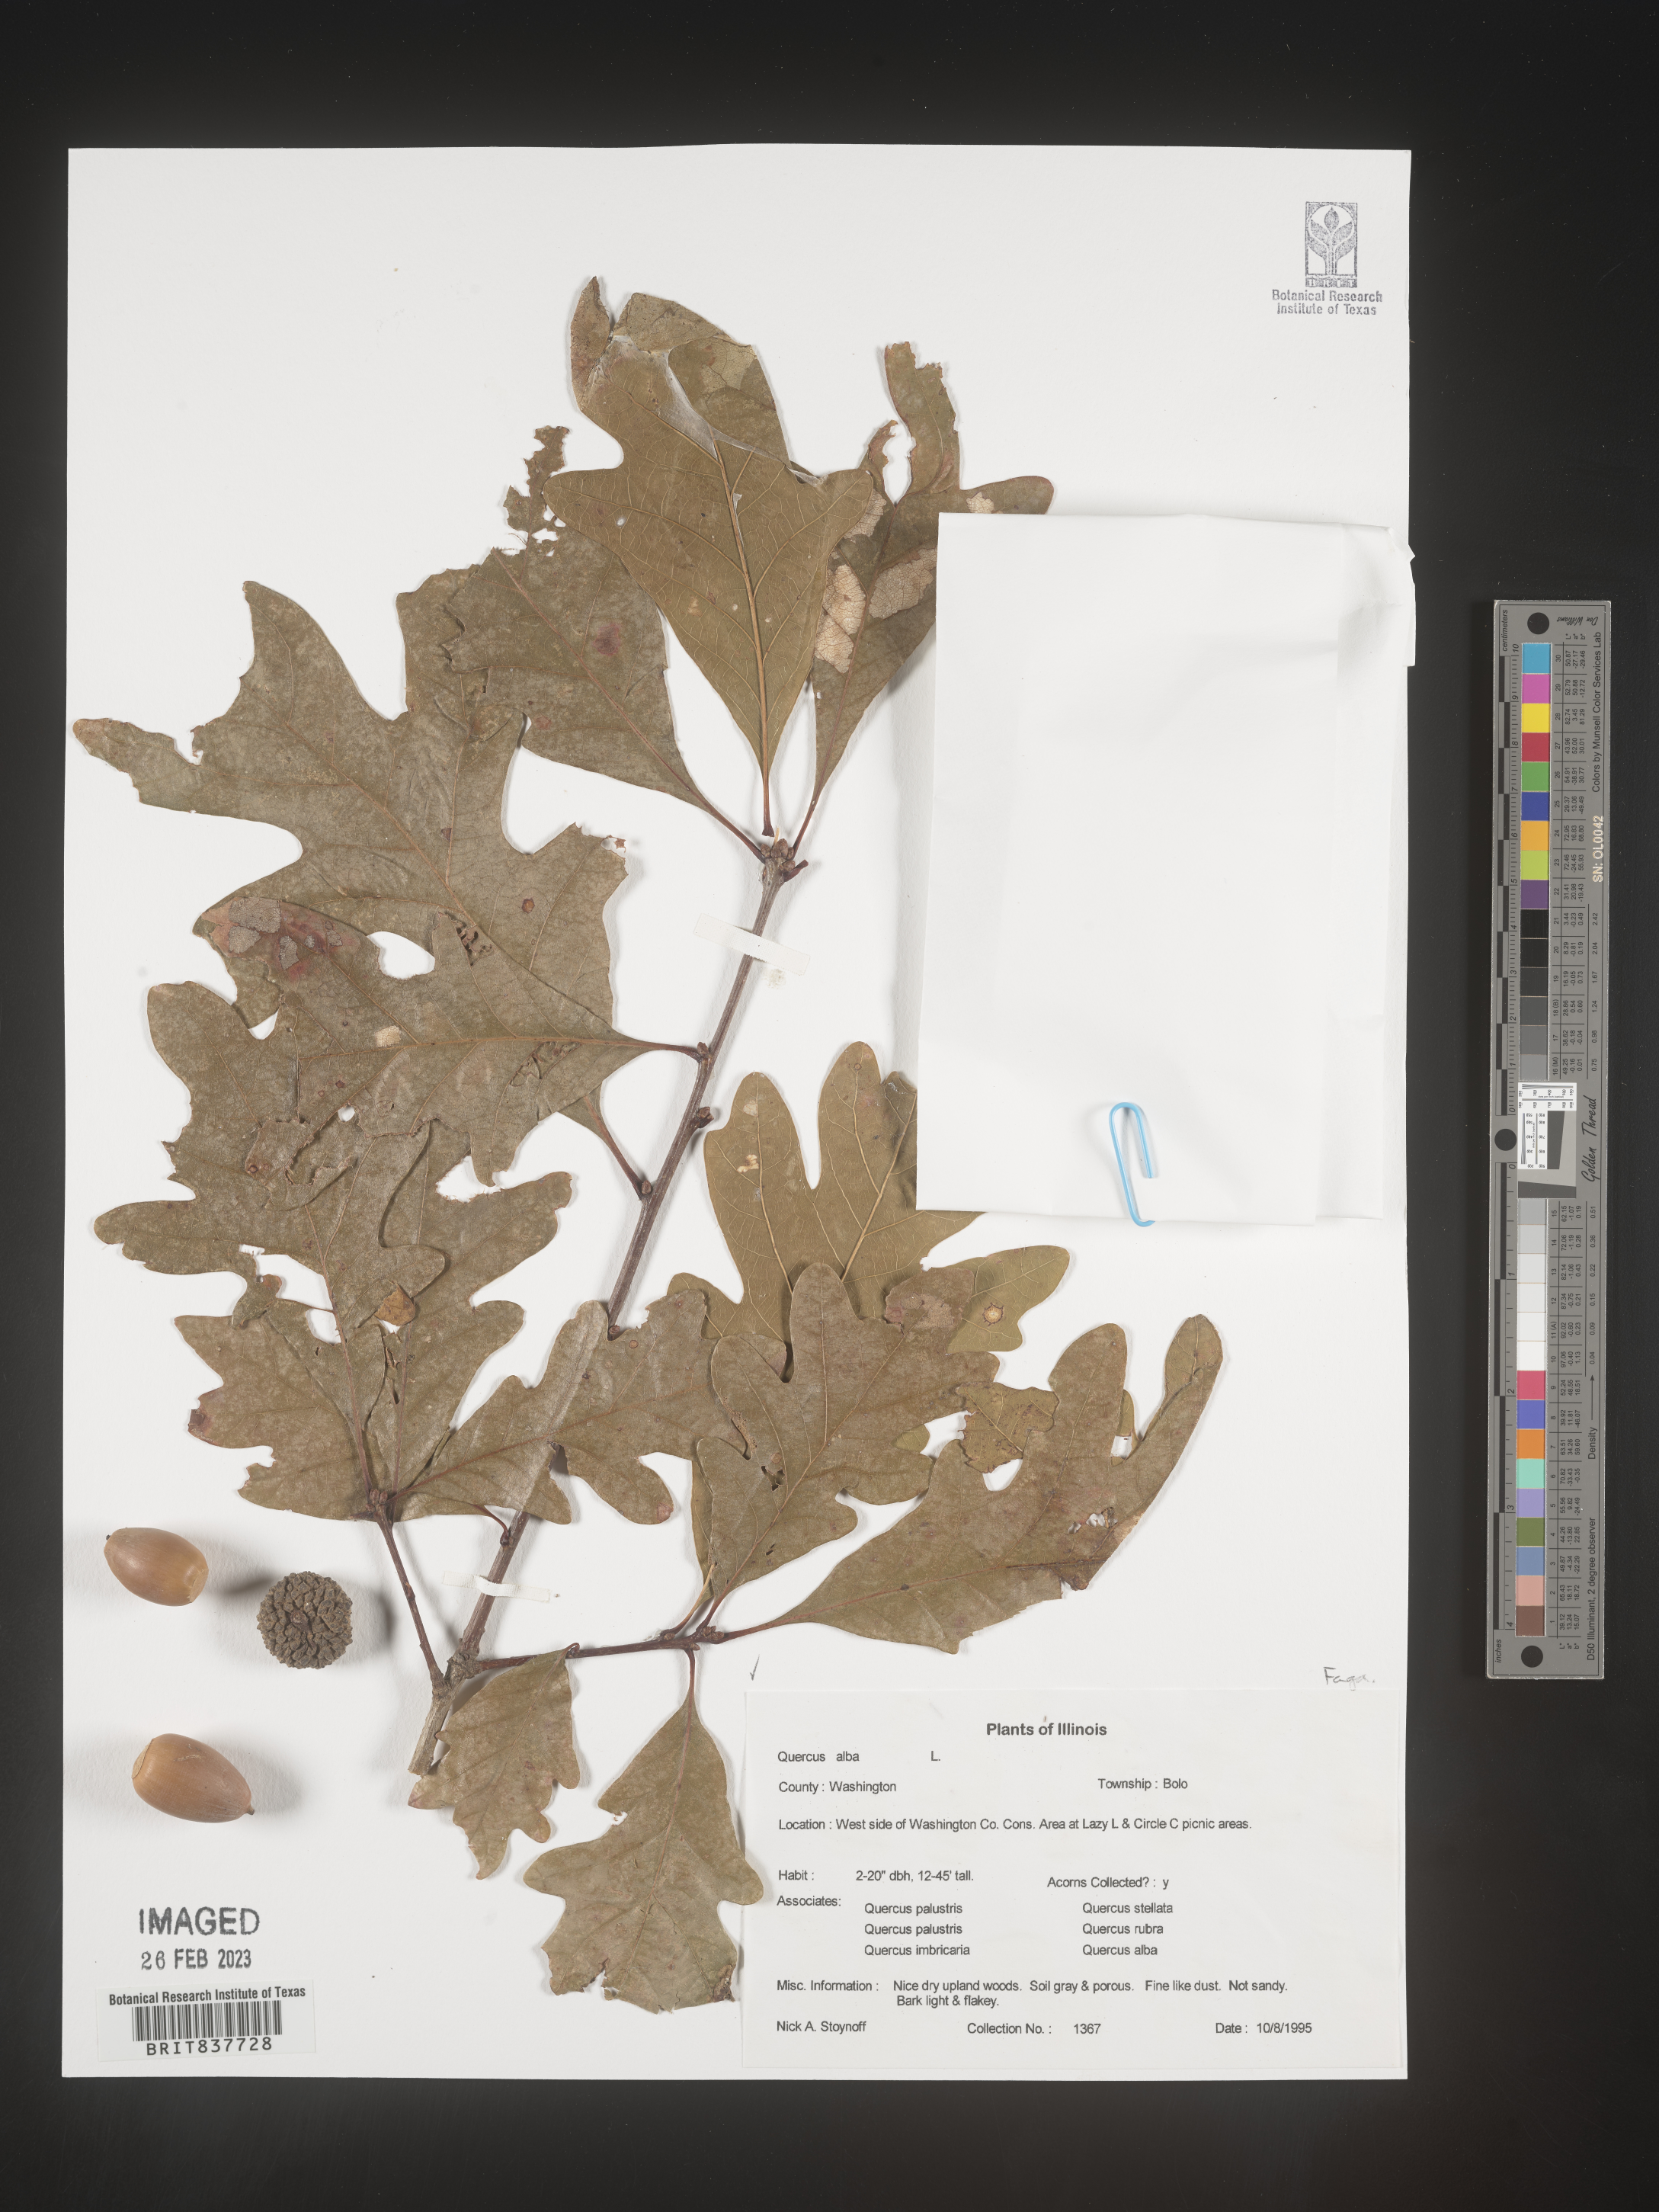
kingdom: Plantae
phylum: Tracheophyta
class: Magnoliopsida
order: Fagales
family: Fagaceae
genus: Quercus
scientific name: Quercus alba
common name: White oak
